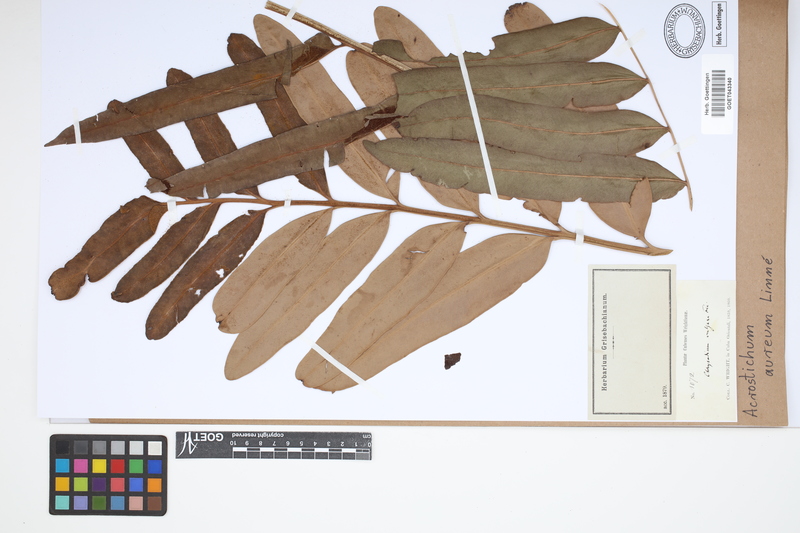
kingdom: Plantae
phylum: Tracheophyta
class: Polypodiopsida
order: Polypodiales
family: Pteridaceae
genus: Acrostichum
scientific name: Acrostichum aureum
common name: Leather fern
